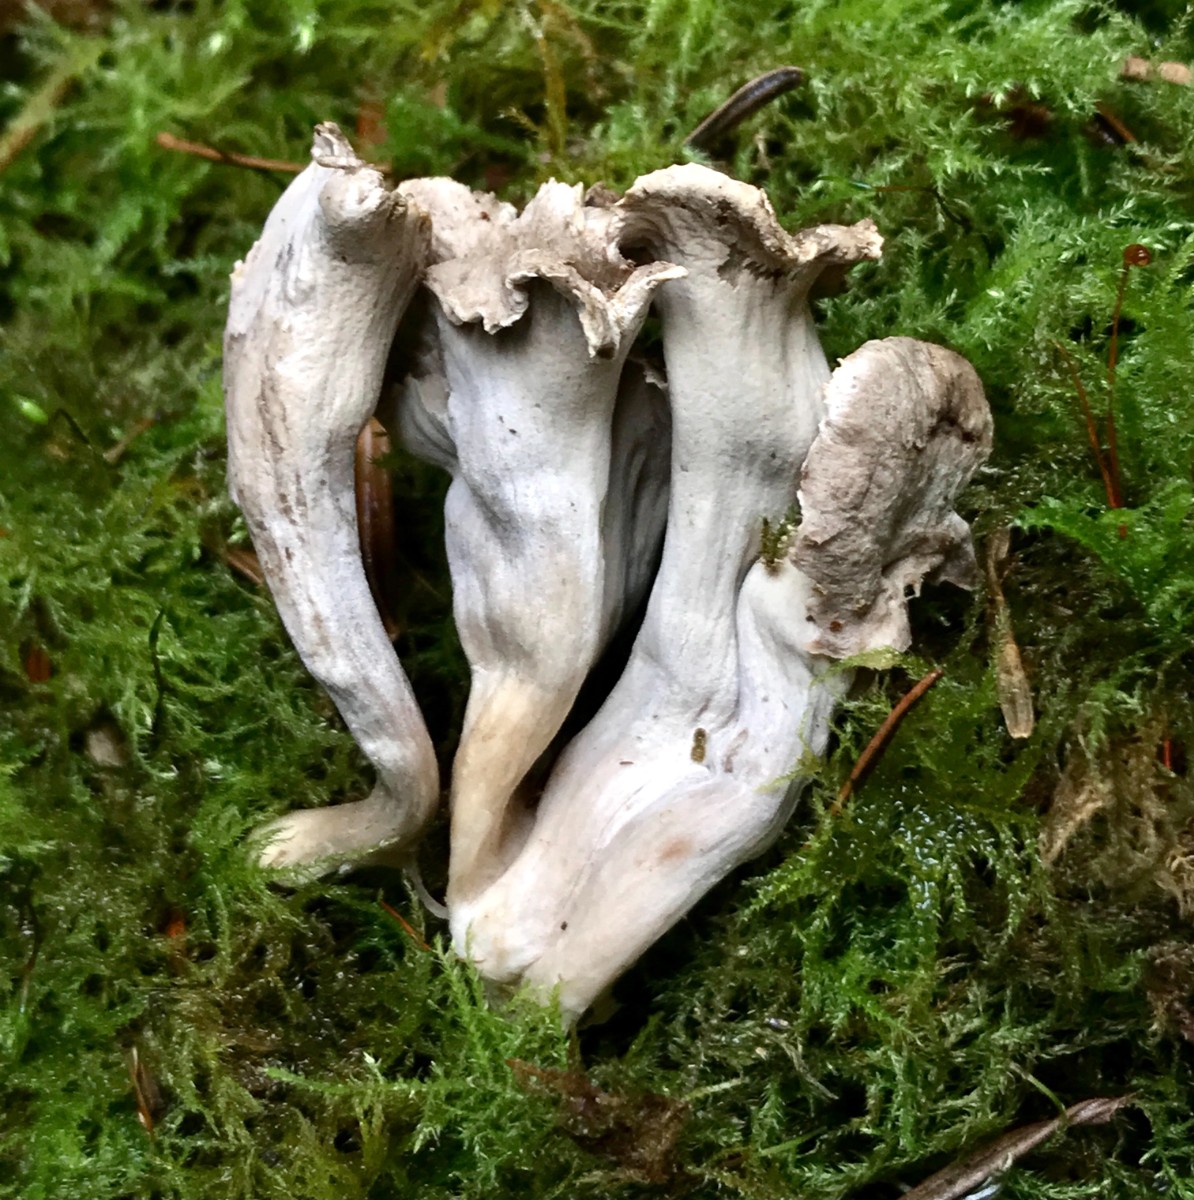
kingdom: Fungi
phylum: Basidiomycota
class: Agaricomycetes
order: Cantharellales
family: Hydnaceae
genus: Craterellus
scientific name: Craterellus cornucopioides
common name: trompetsvamp
